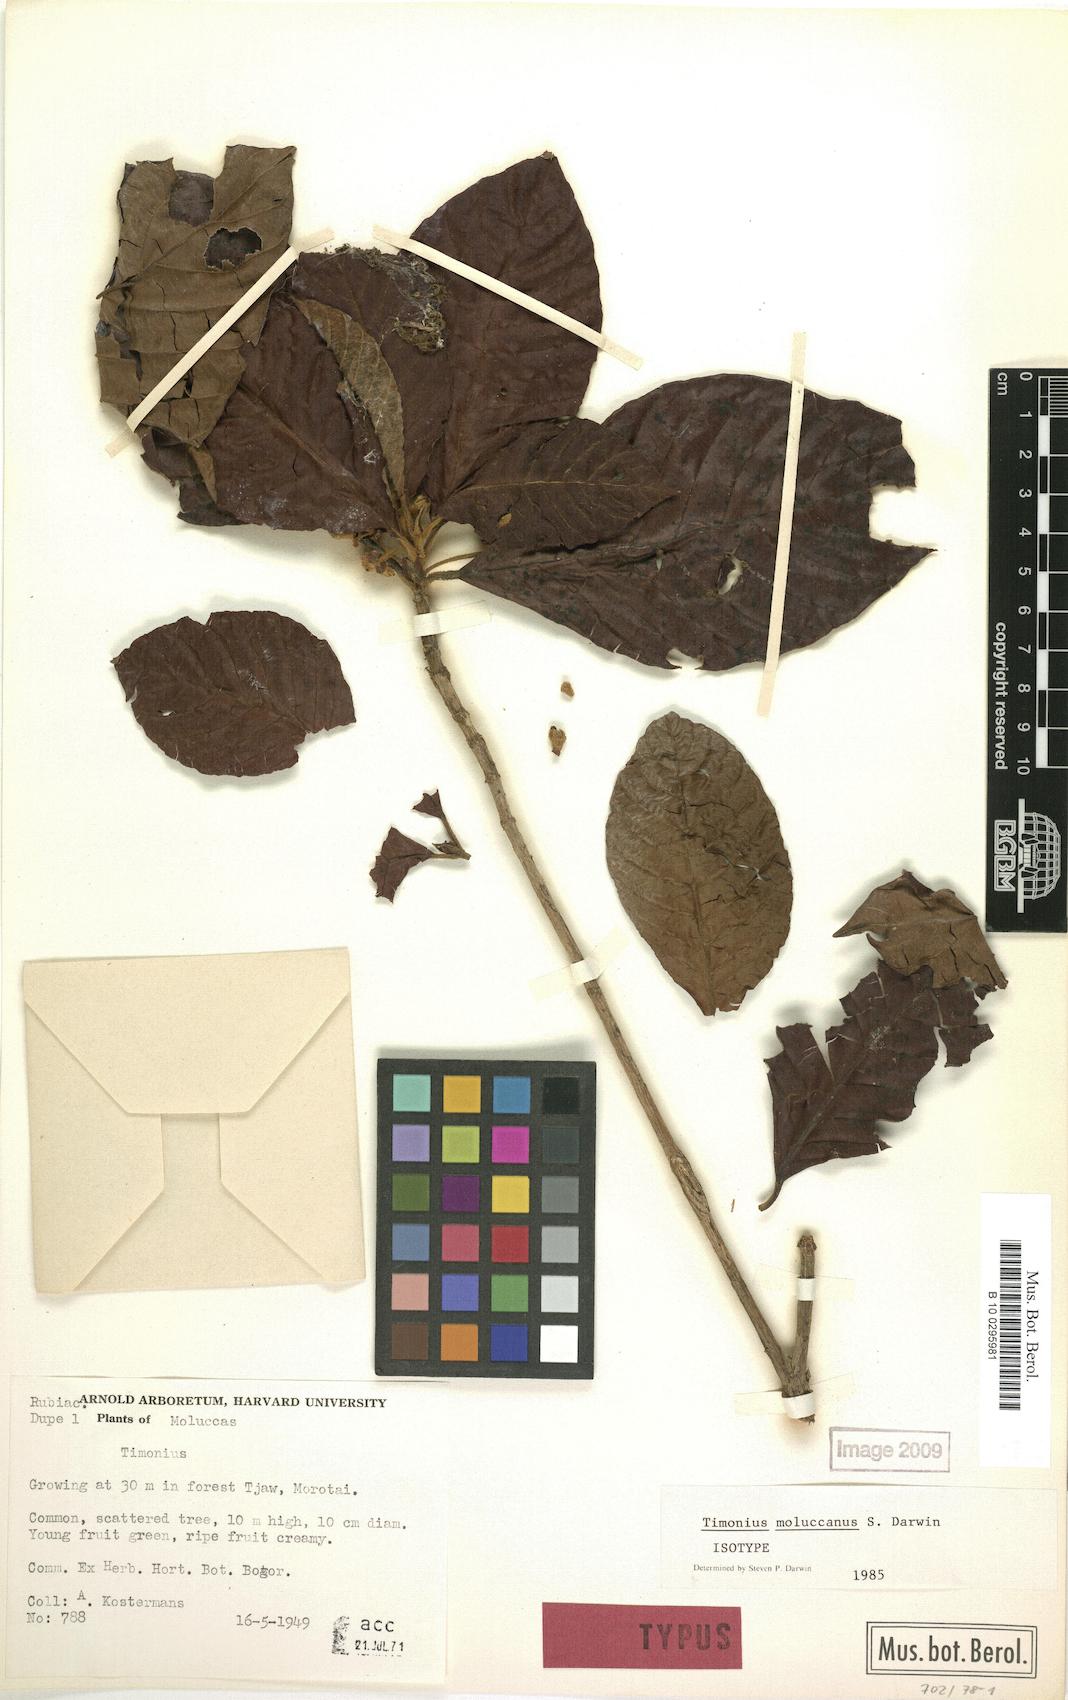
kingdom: Plantae
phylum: Tracheophyta
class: Magnoliopsida
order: Gentianales
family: Rubiaceae
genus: Timonius
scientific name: Timonius moluccanus
